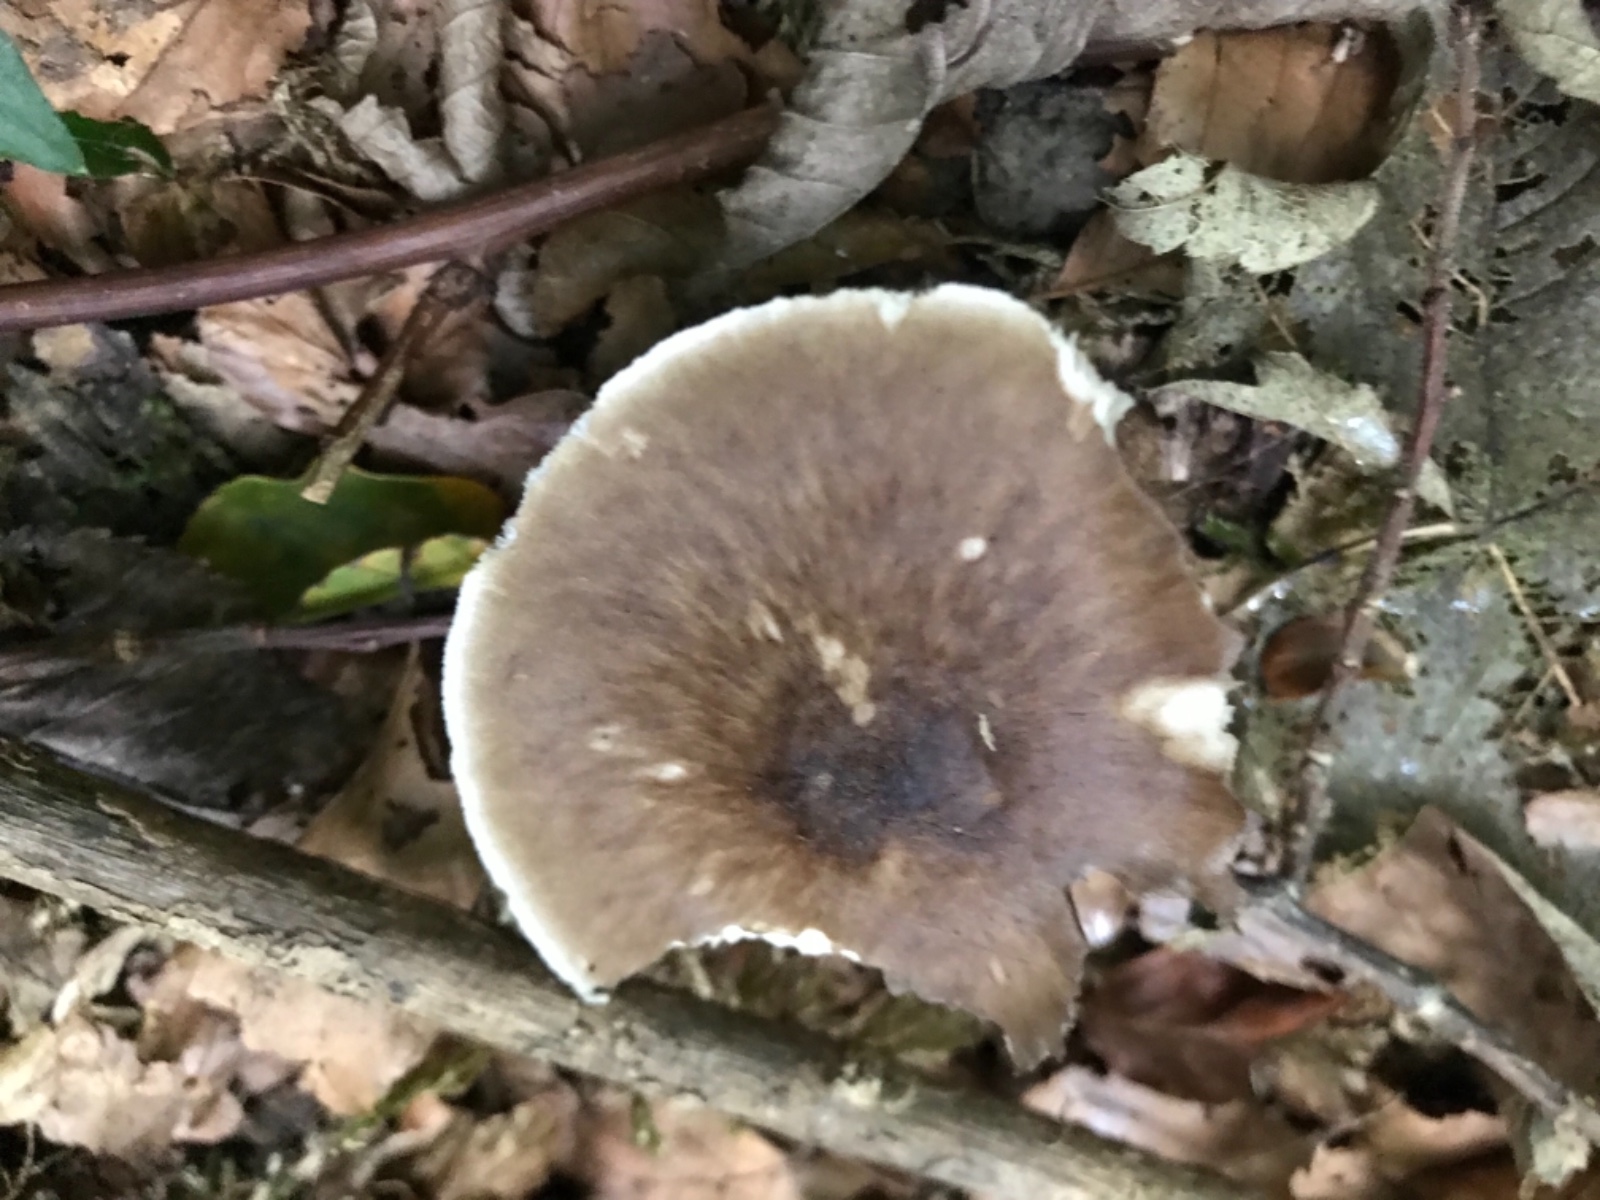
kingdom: Fungi
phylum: Basidiomycota
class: Agaricomycetes
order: Agaricales
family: Pluteaceae
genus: Pluteus
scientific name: Pluteus cervinus
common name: sodfarvet skærmhat
